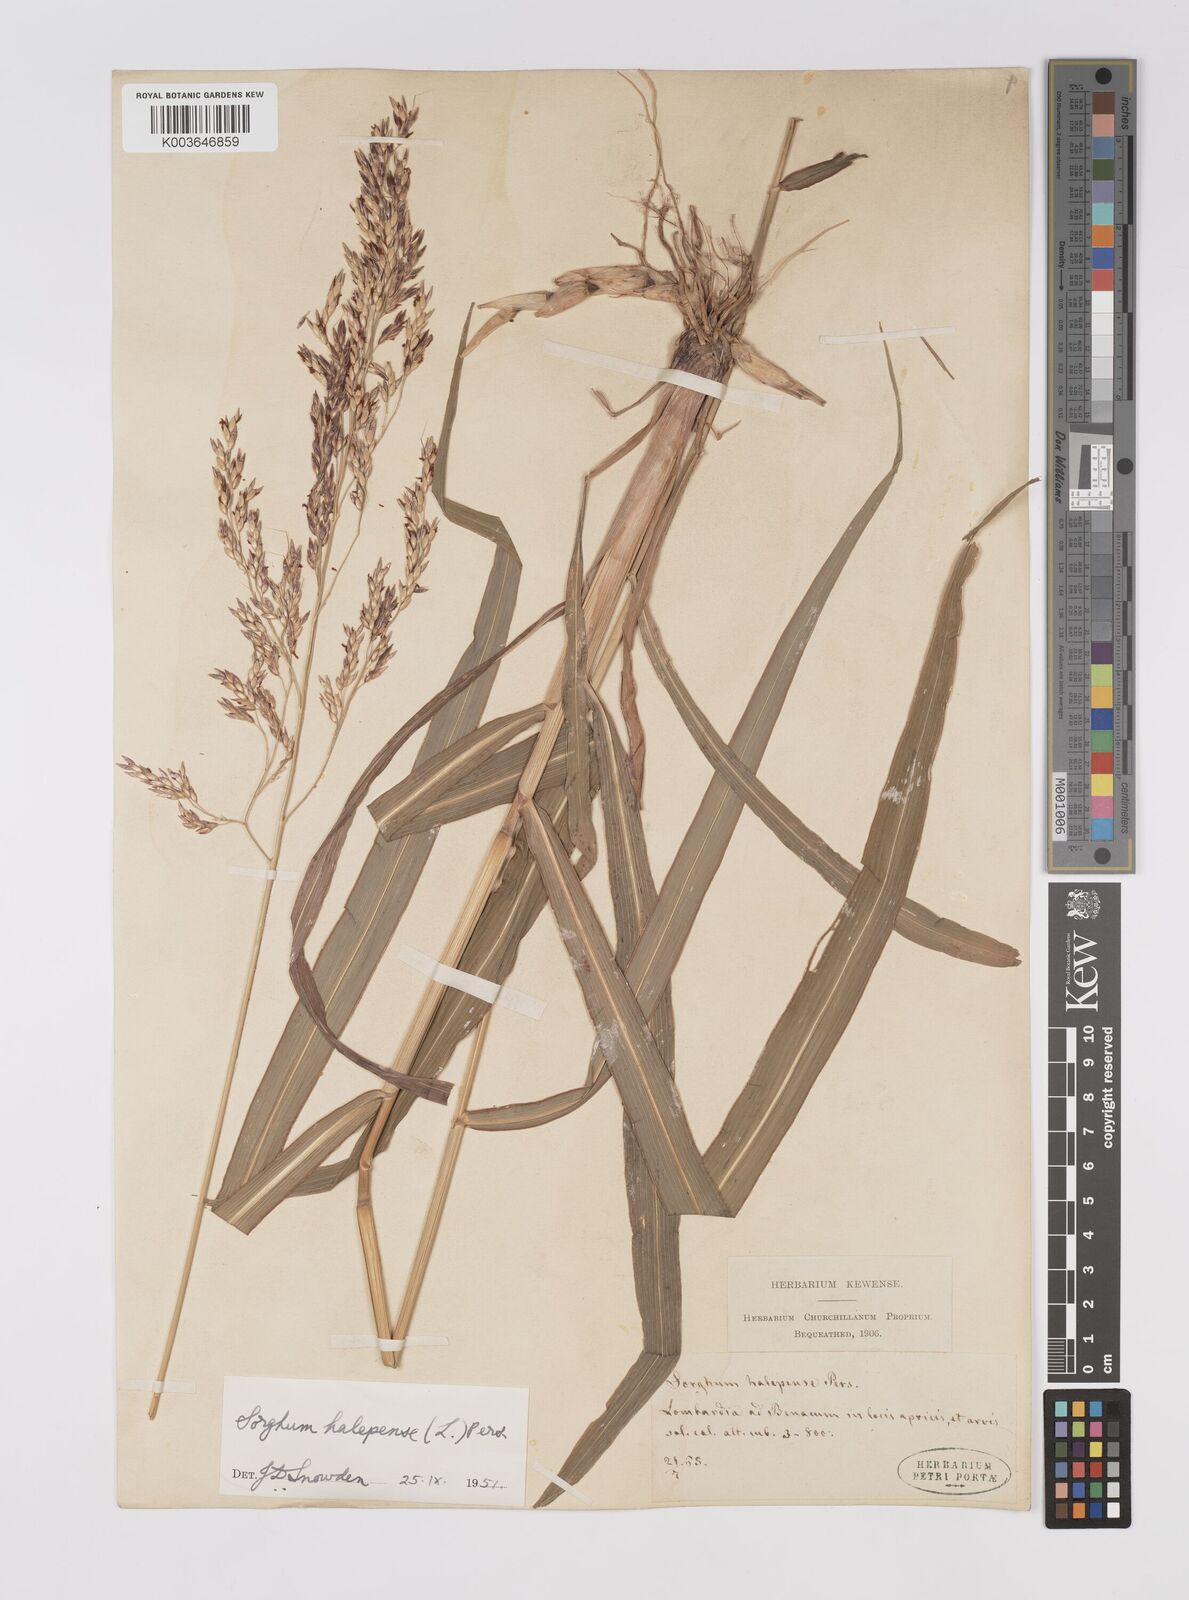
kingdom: Plantae
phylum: Tracheophyta
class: Liliopsida
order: Poales
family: Poaceae
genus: Sorghum
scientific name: Sorghum halepense
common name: Johnson-grass
